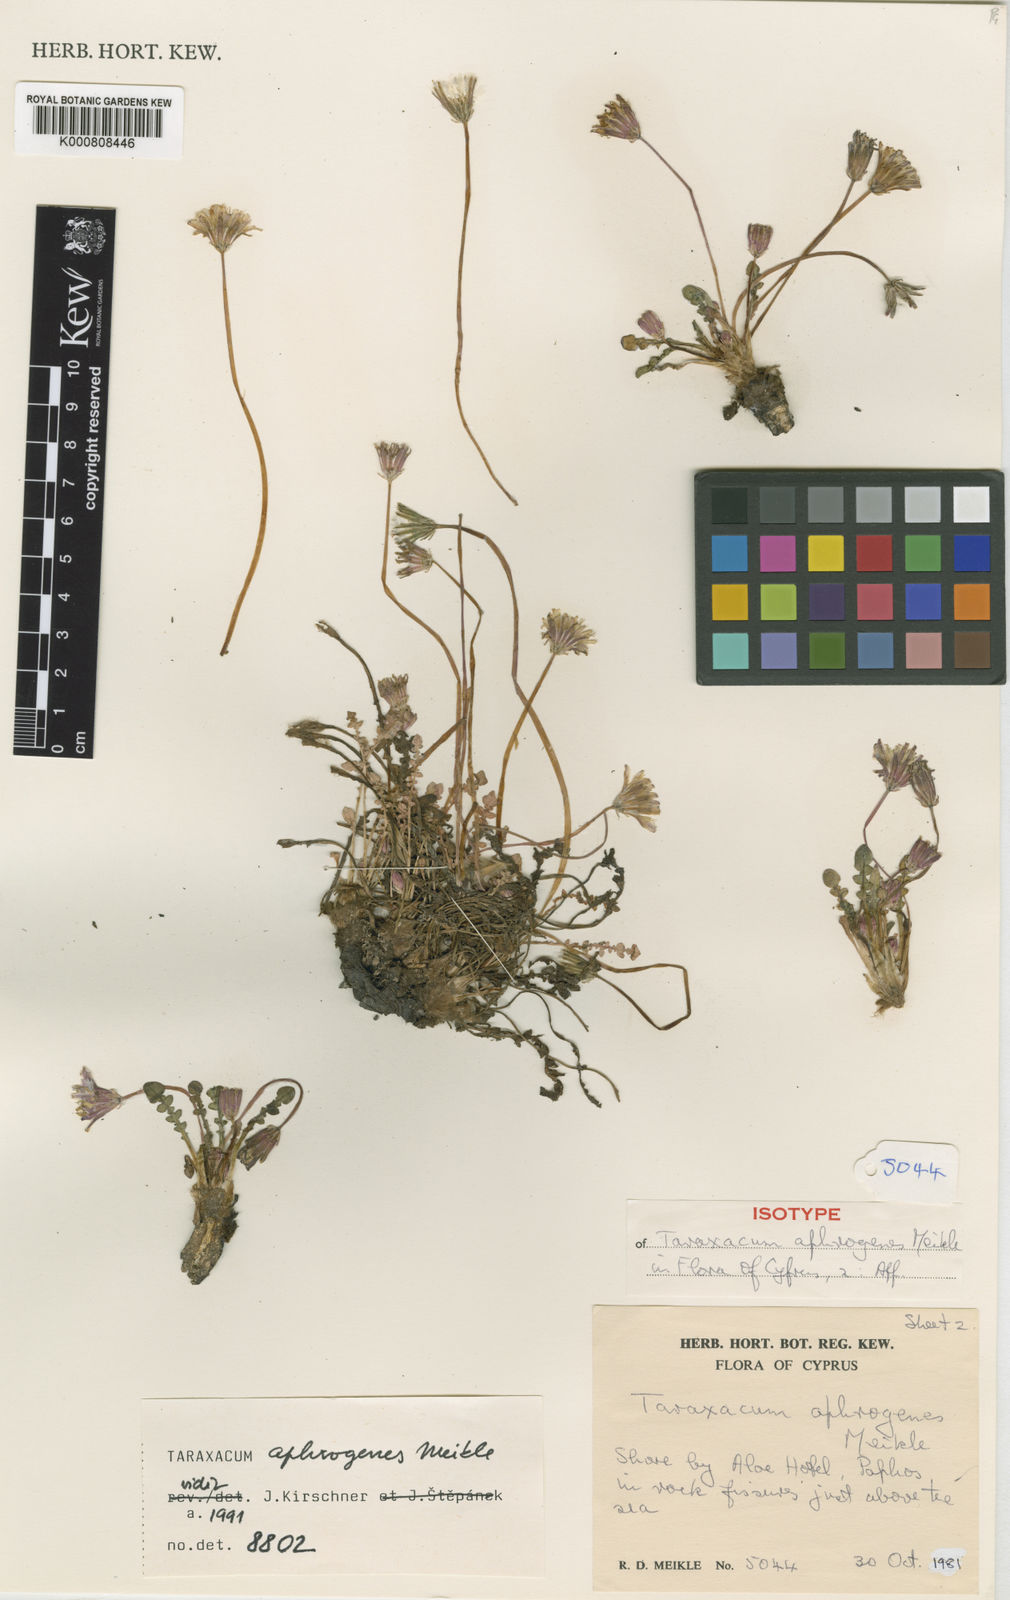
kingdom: Plantae
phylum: Tracheophyta
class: Magnoliopsida
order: Asterales
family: Asteraceae
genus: Taraxacum
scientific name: Taraxacum bithynicum
